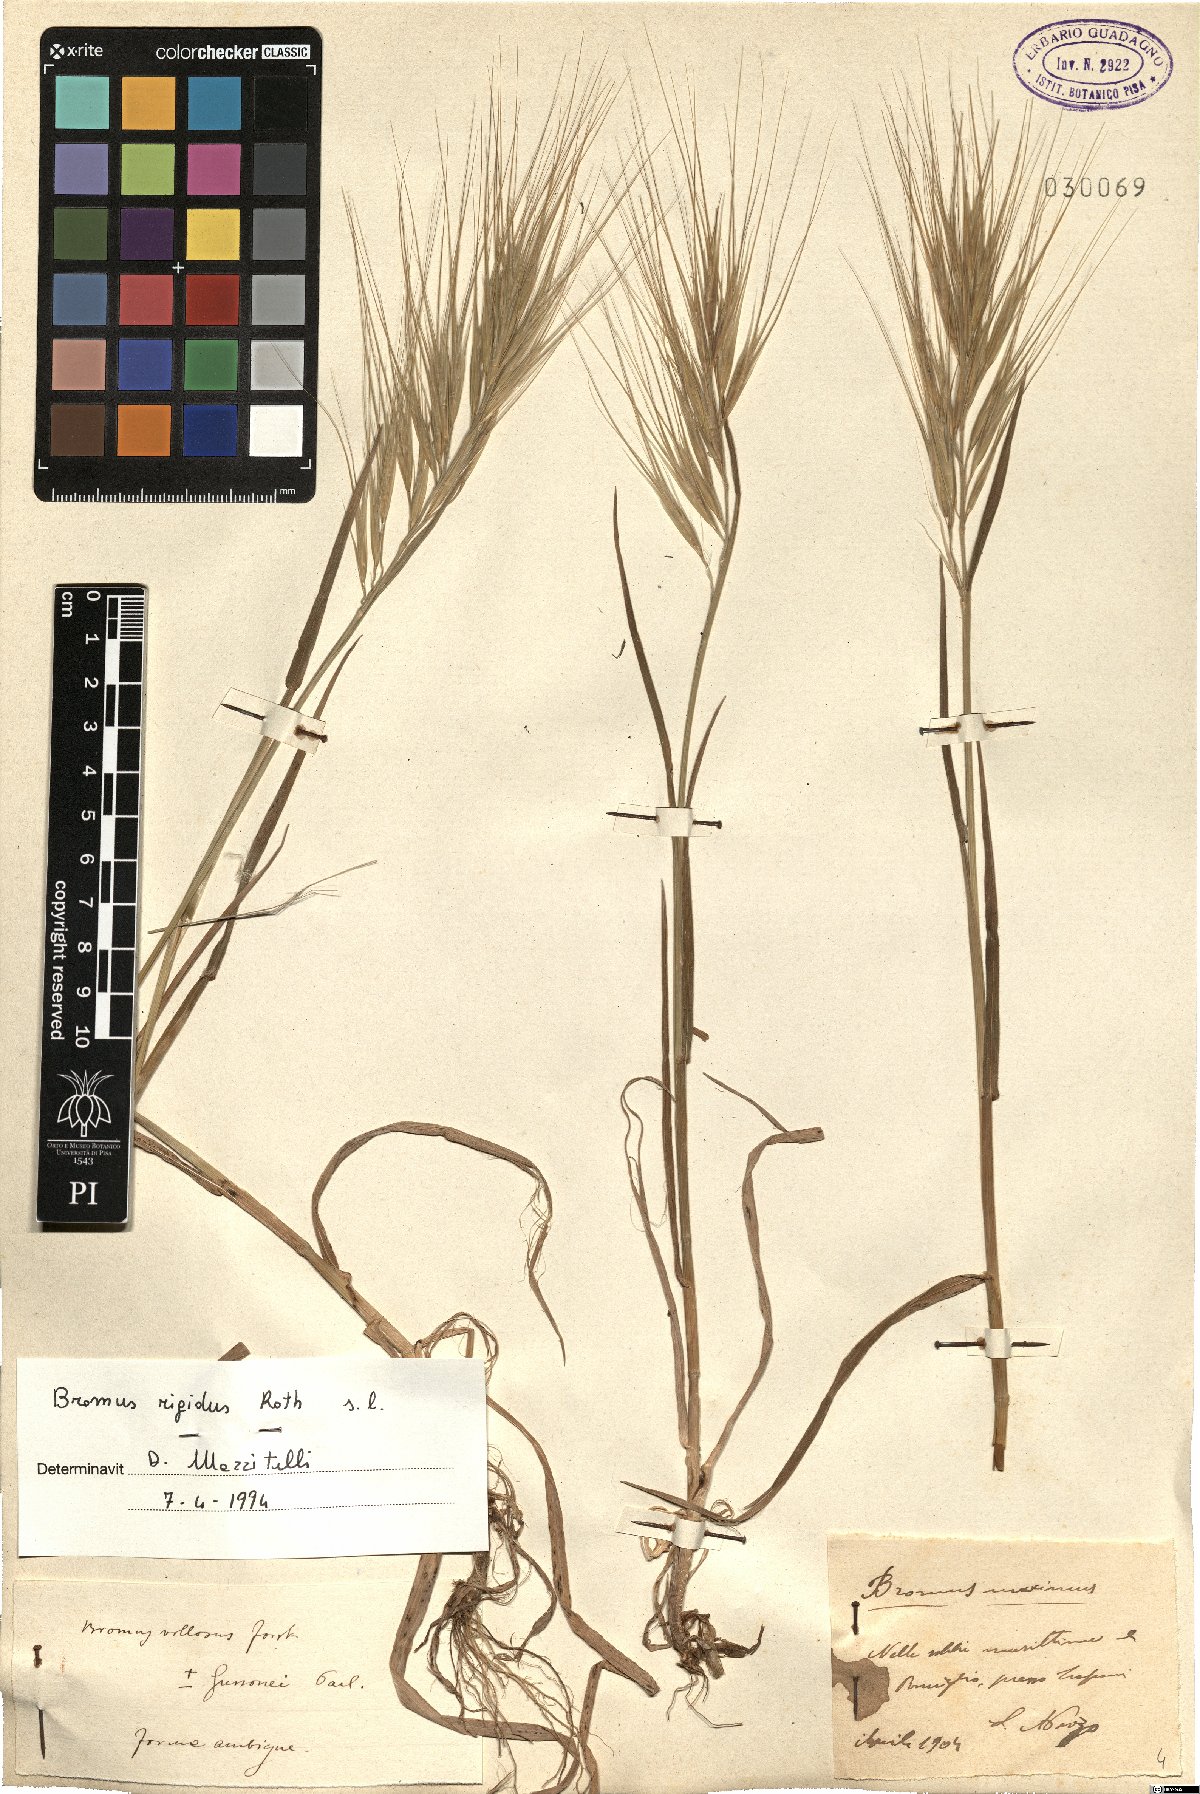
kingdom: Plantae
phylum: Tracheophyta
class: Liliopsida
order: Poales
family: Poaceae
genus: Bromus
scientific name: Bromus rigidus
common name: Ripgut brome
